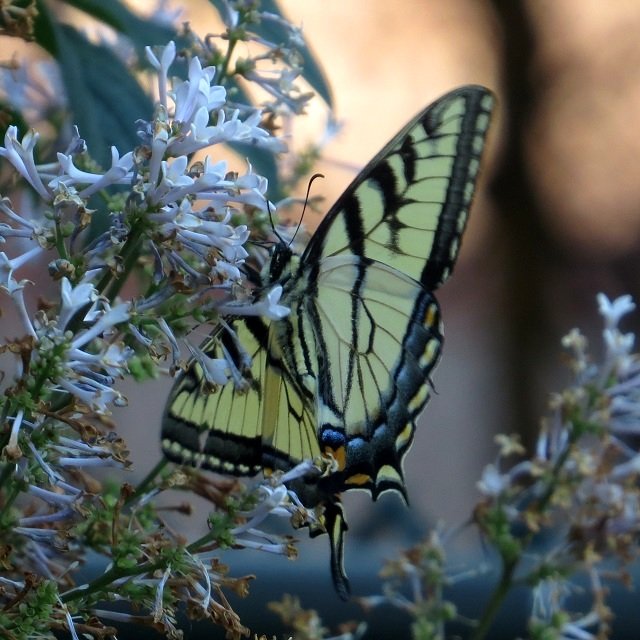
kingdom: Animalia
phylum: Arthropoda
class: Insecta
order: Lepidoptera
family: Papilionidae
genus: Pterourus
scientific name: Pterourus glaucus
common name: Eastern Tiger Swallowtail
